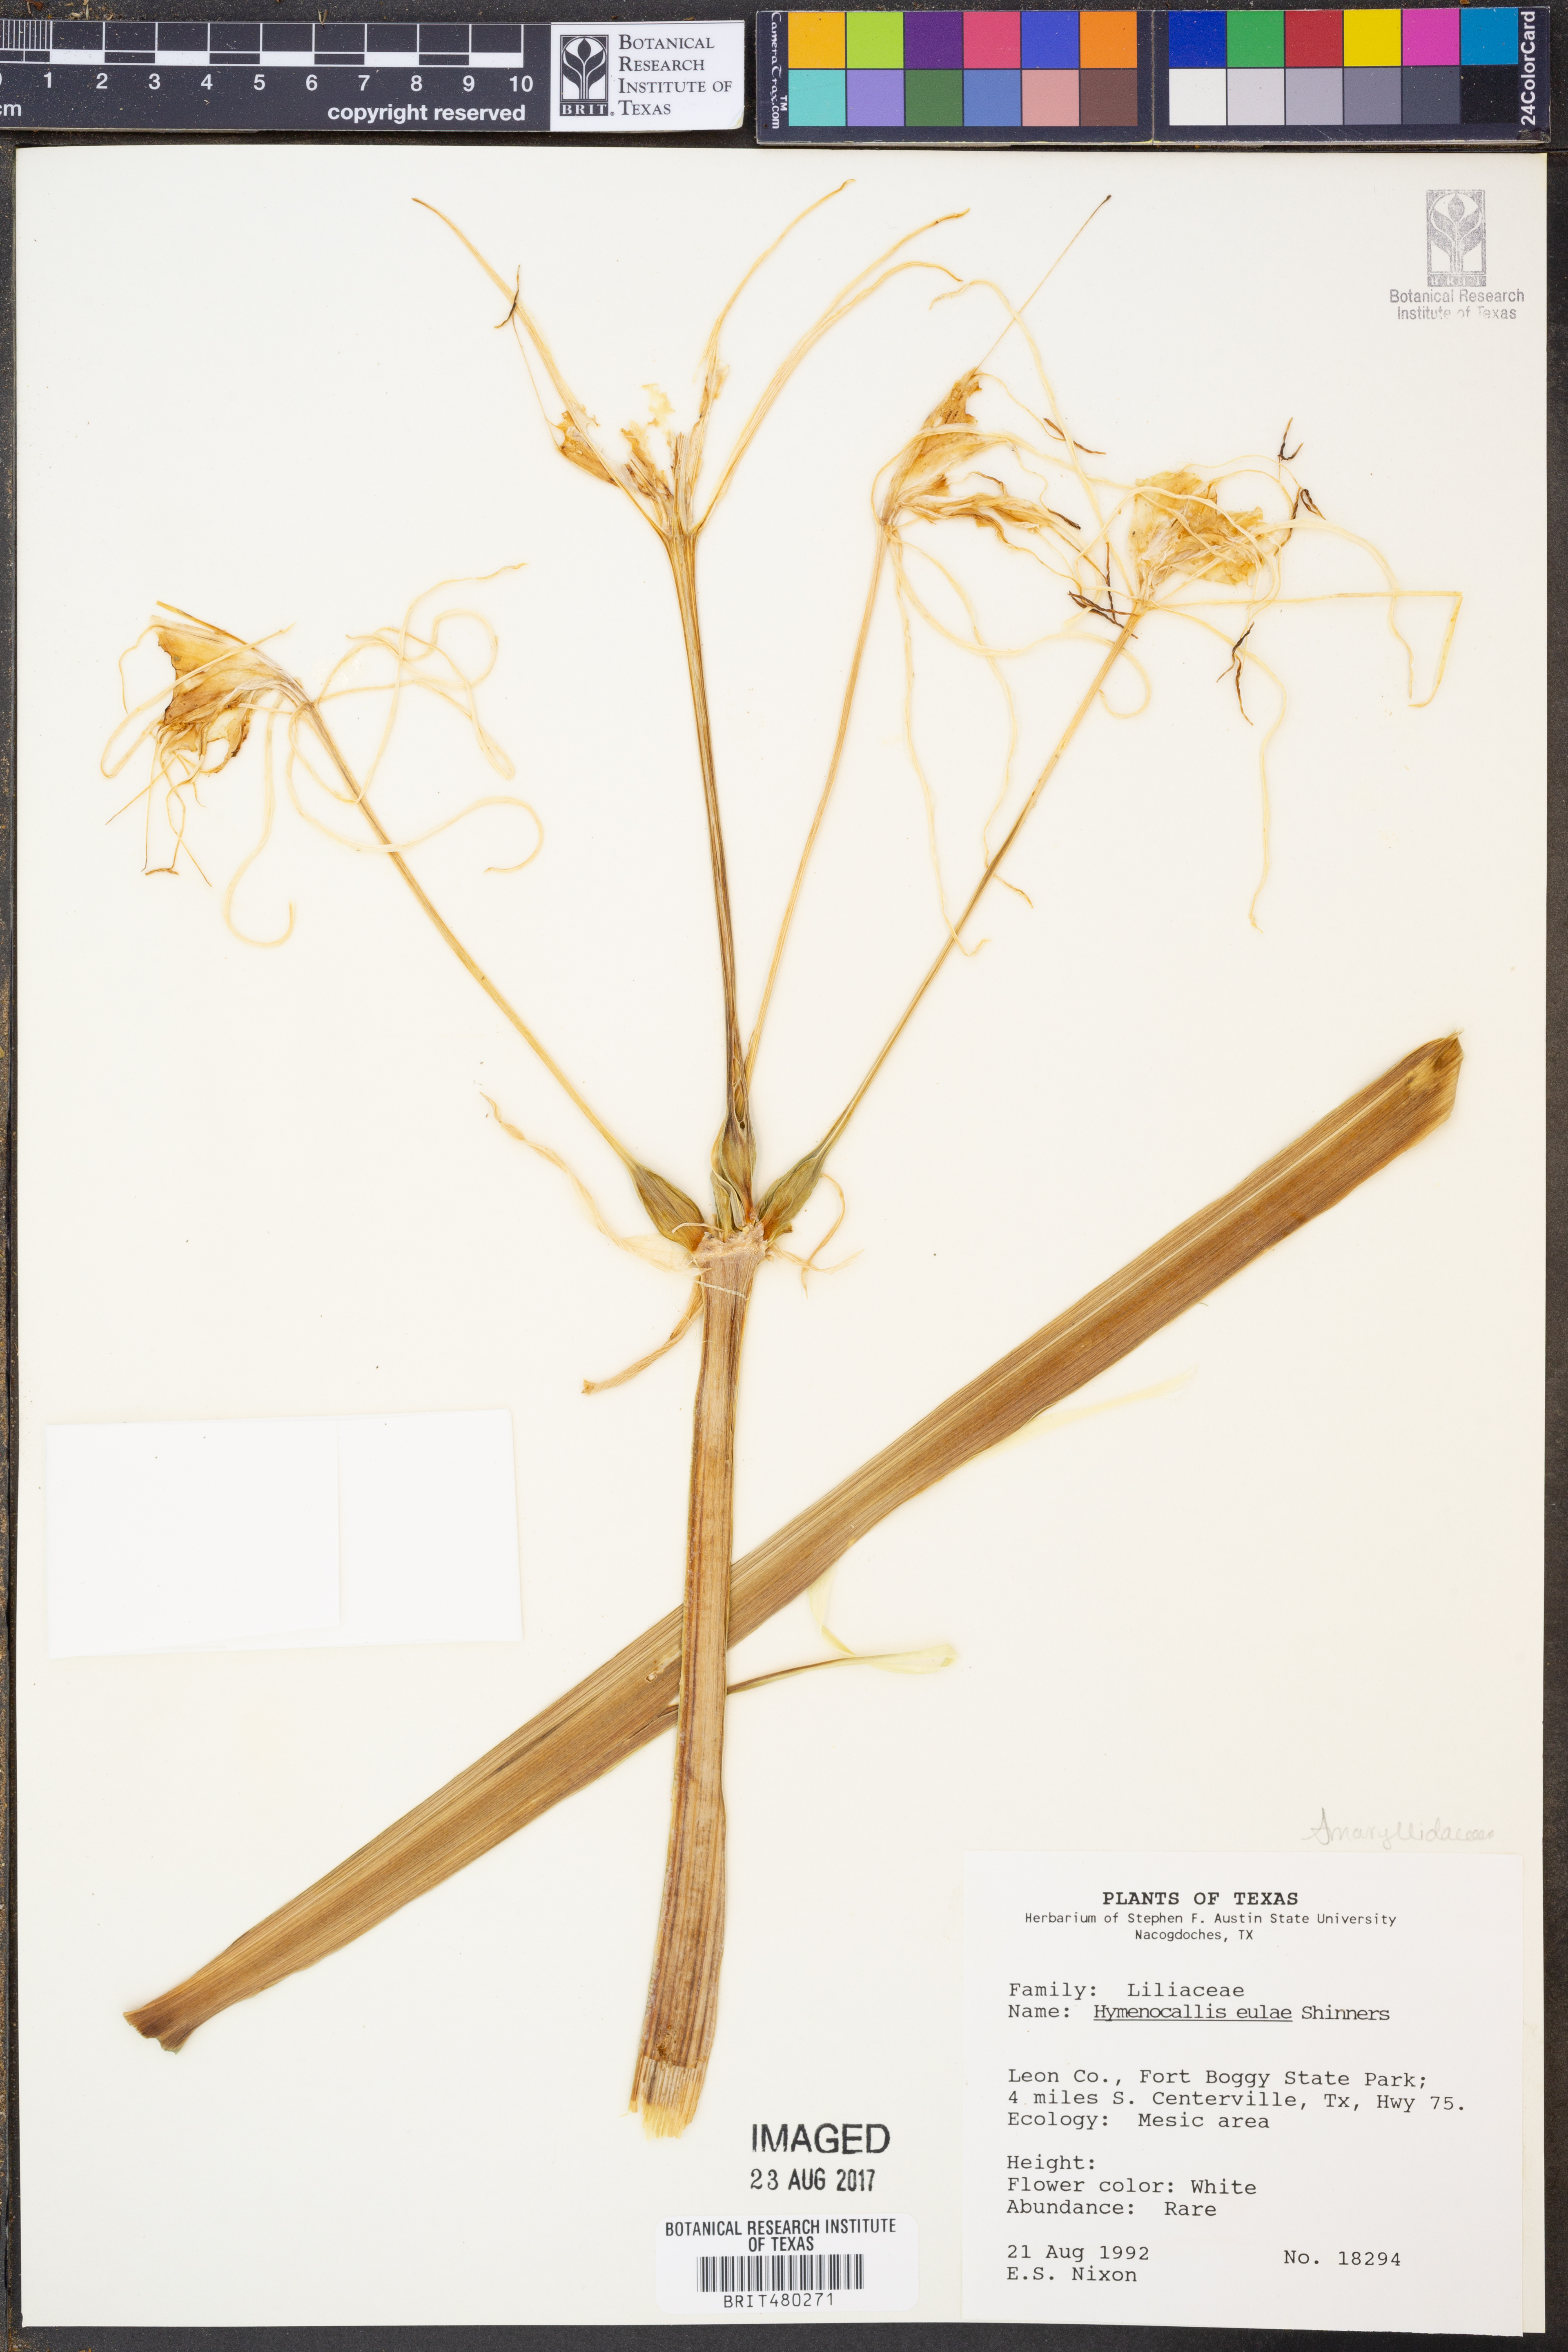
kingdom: Plantae
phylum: Tracheophyta
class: Liliopsida
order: Asparagales
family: Amaryllidaceae
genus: Hymenocallis
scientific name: Hymenocallis occidentalis
